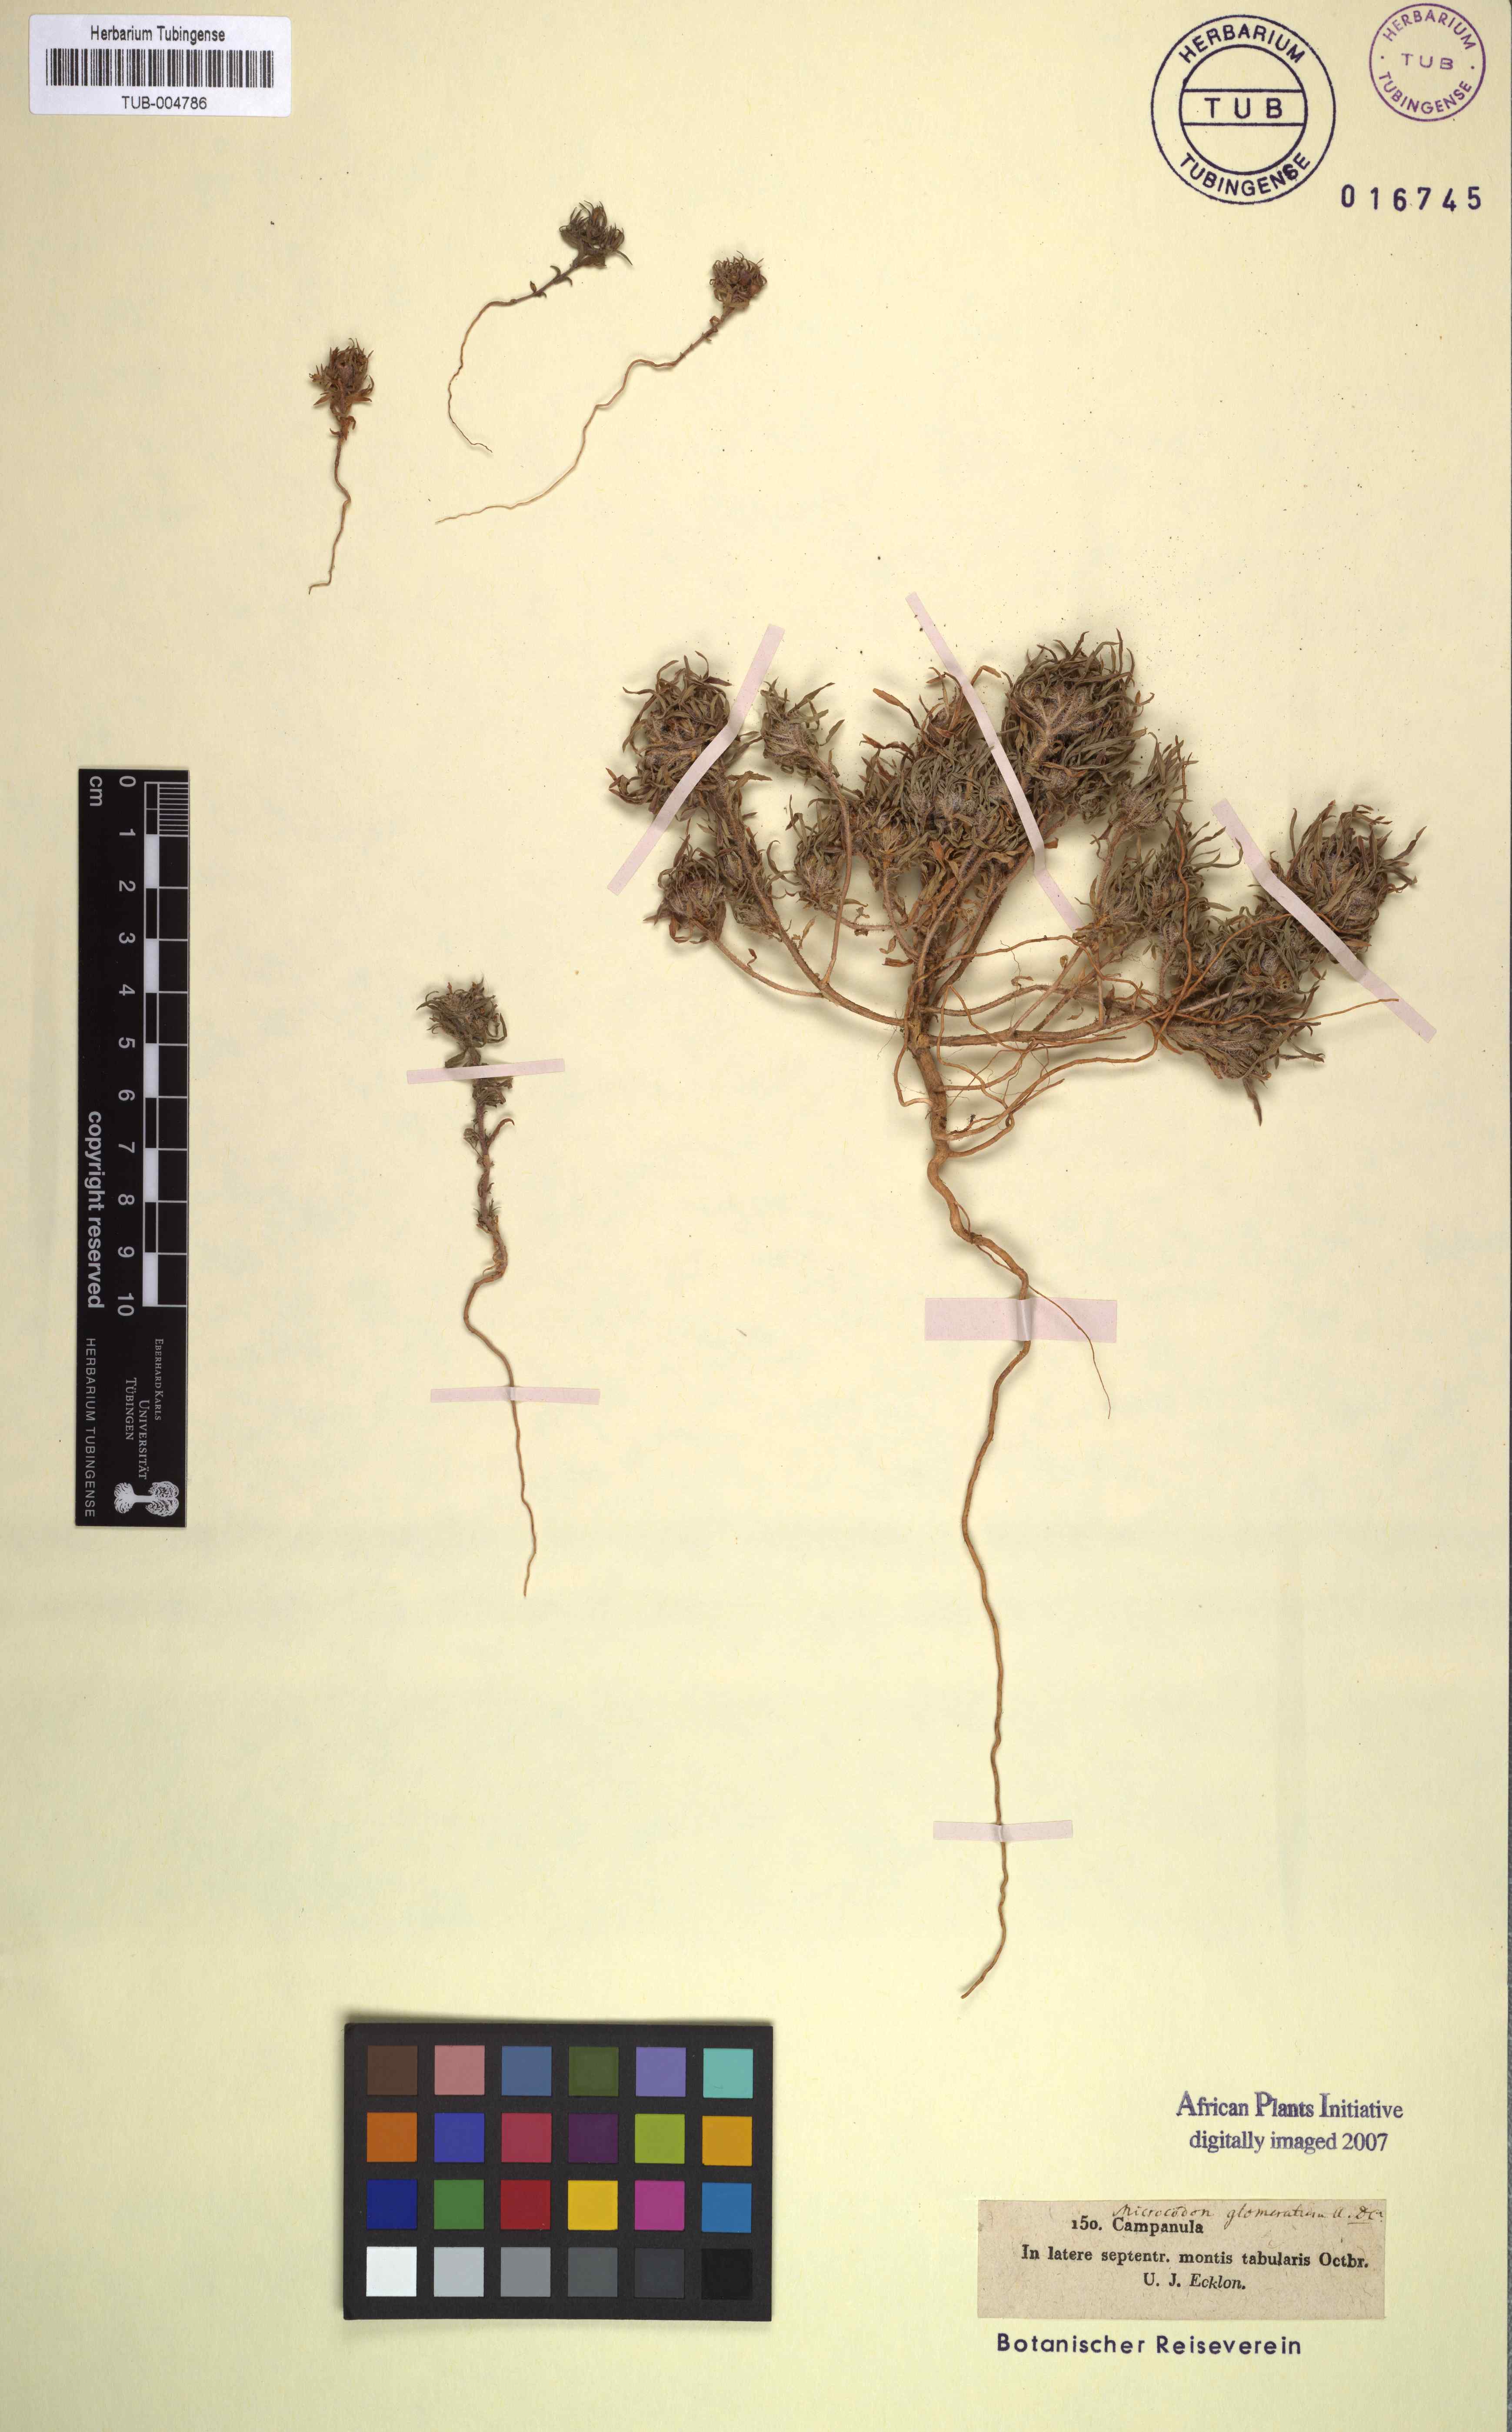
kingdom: Plantae
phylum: Tracheophyta
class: Magnoliopsida
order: Asterales
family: Campanulaceae
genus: Microcodon
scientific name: Microcodon
